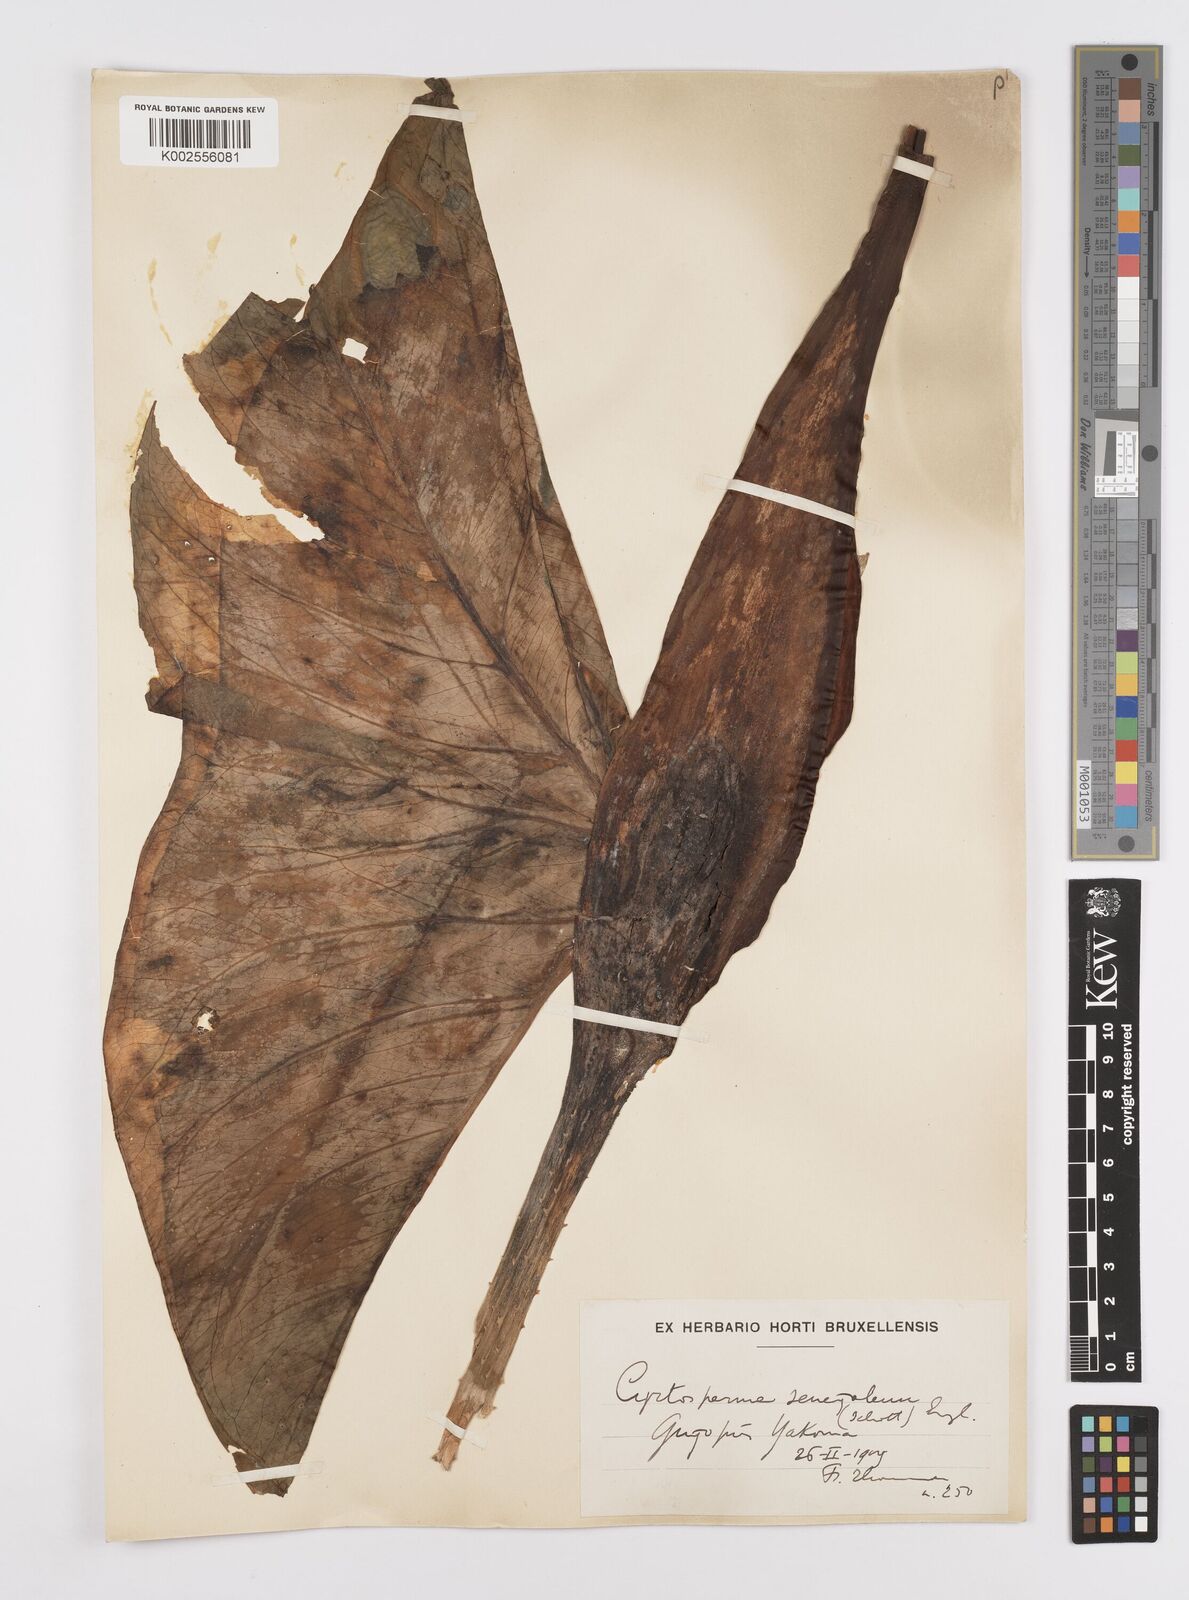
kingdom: Plantae
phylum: Tracheophyta
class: Liliopsida
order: Alismatales
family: Araceae
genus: Lasimorpha
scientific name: Lasimorpha senegalensis
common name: Swamp arum
